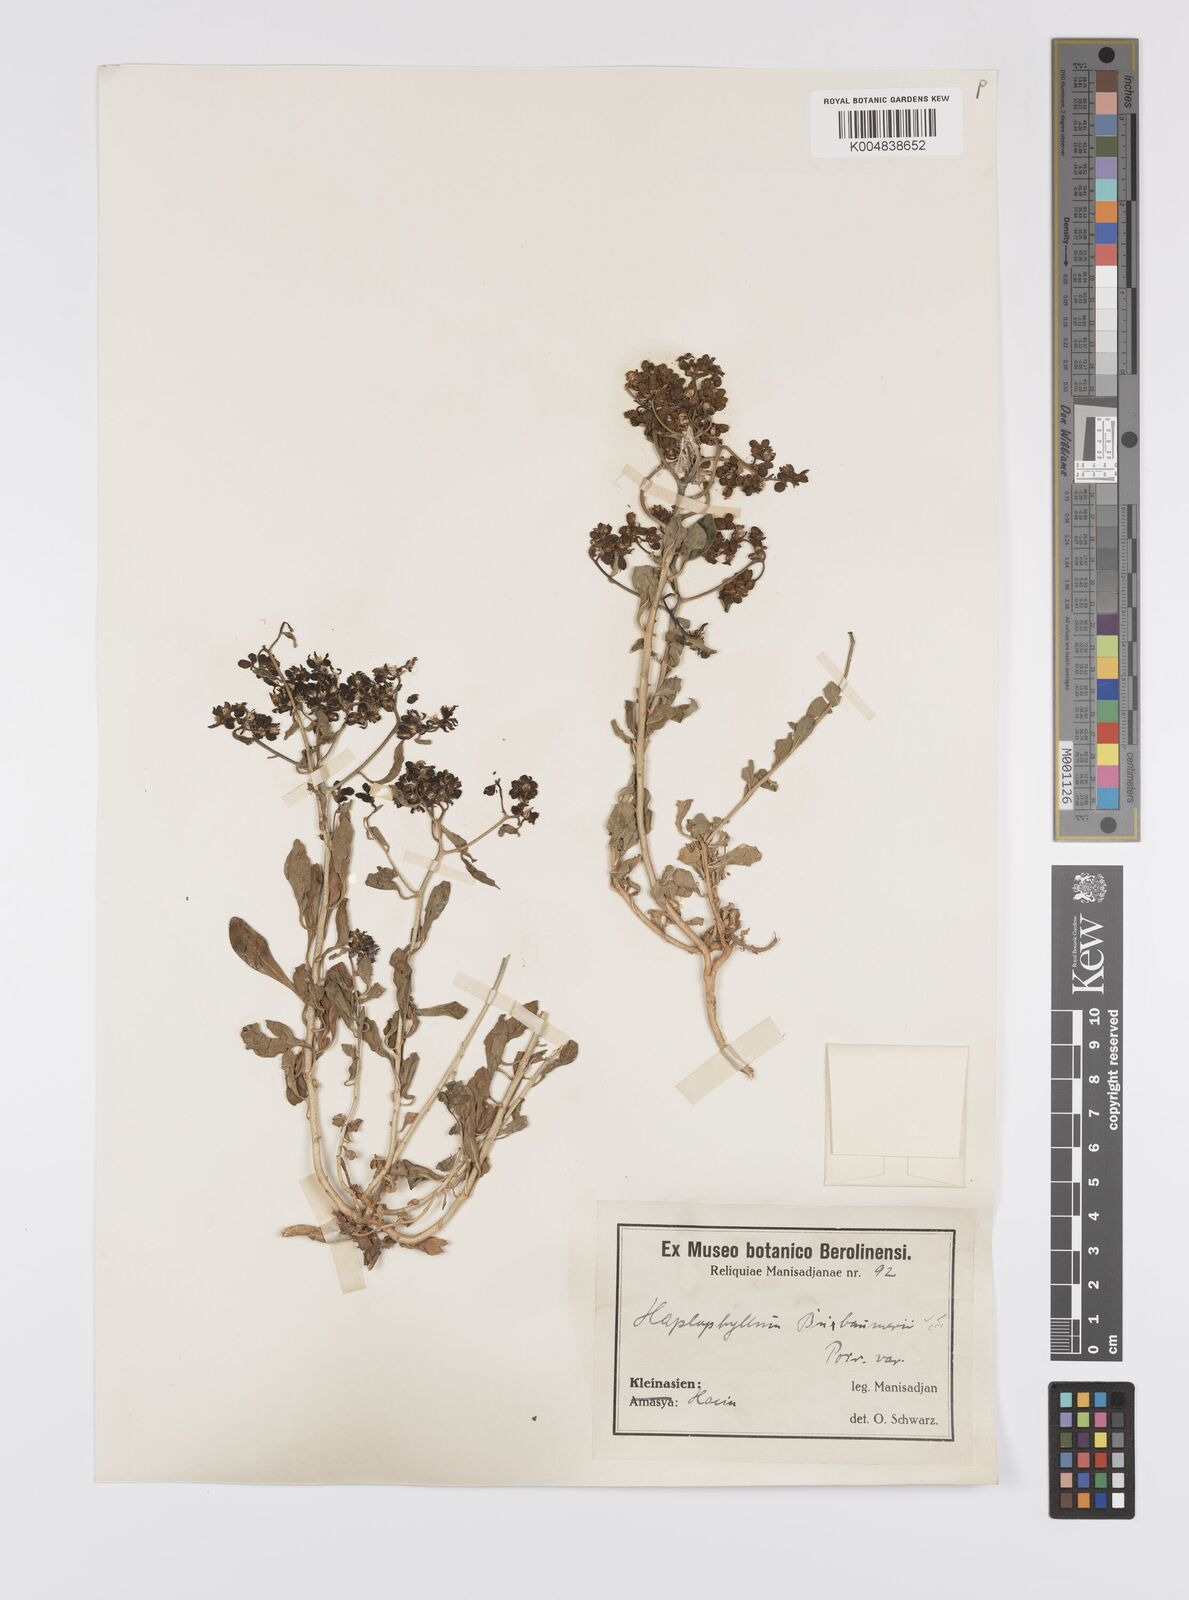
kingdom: Plantae
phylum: Tracheophyta
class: Magnoliopsida
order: Sapindales
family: Rutaceae
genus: Haplophyllum
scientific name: Haplophyllum
